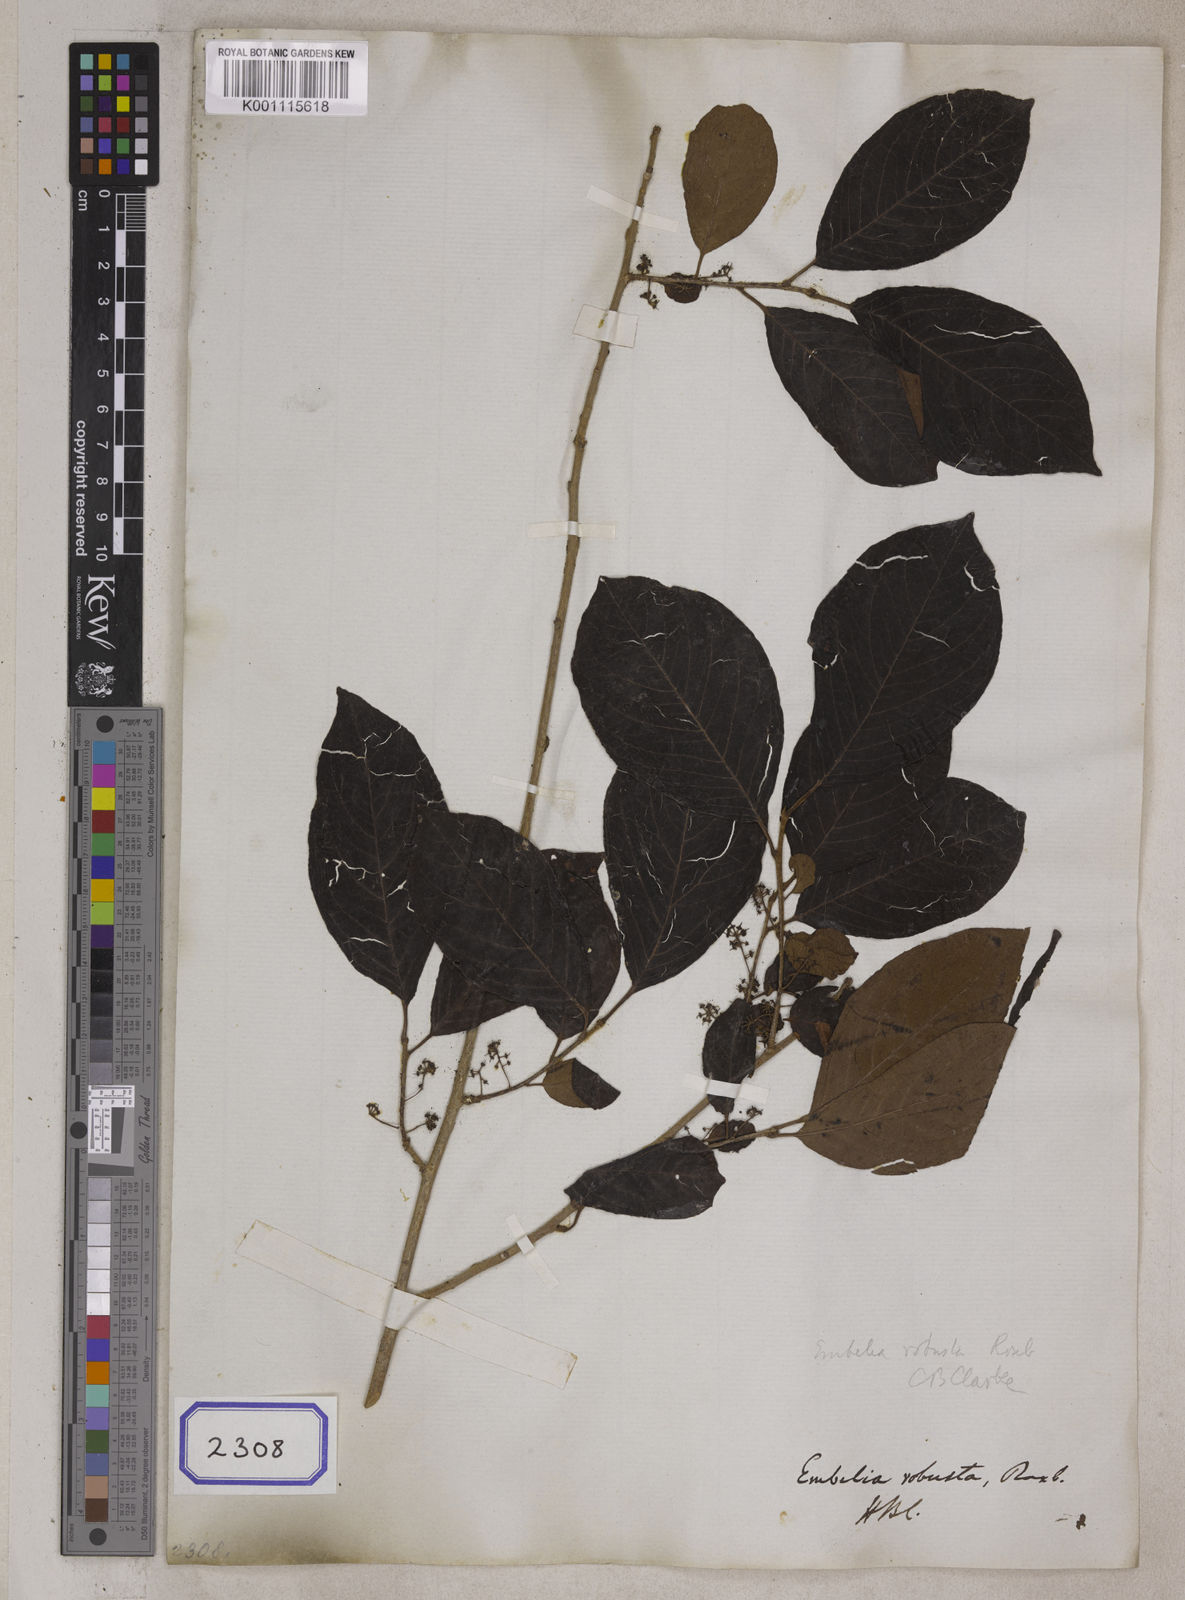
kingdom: Plantae
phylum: Tracheophyta
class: Magnoliopsida
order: Ericales
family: Primulaceae
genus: Embelia
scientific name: Embelia tsjeriam-cottam
